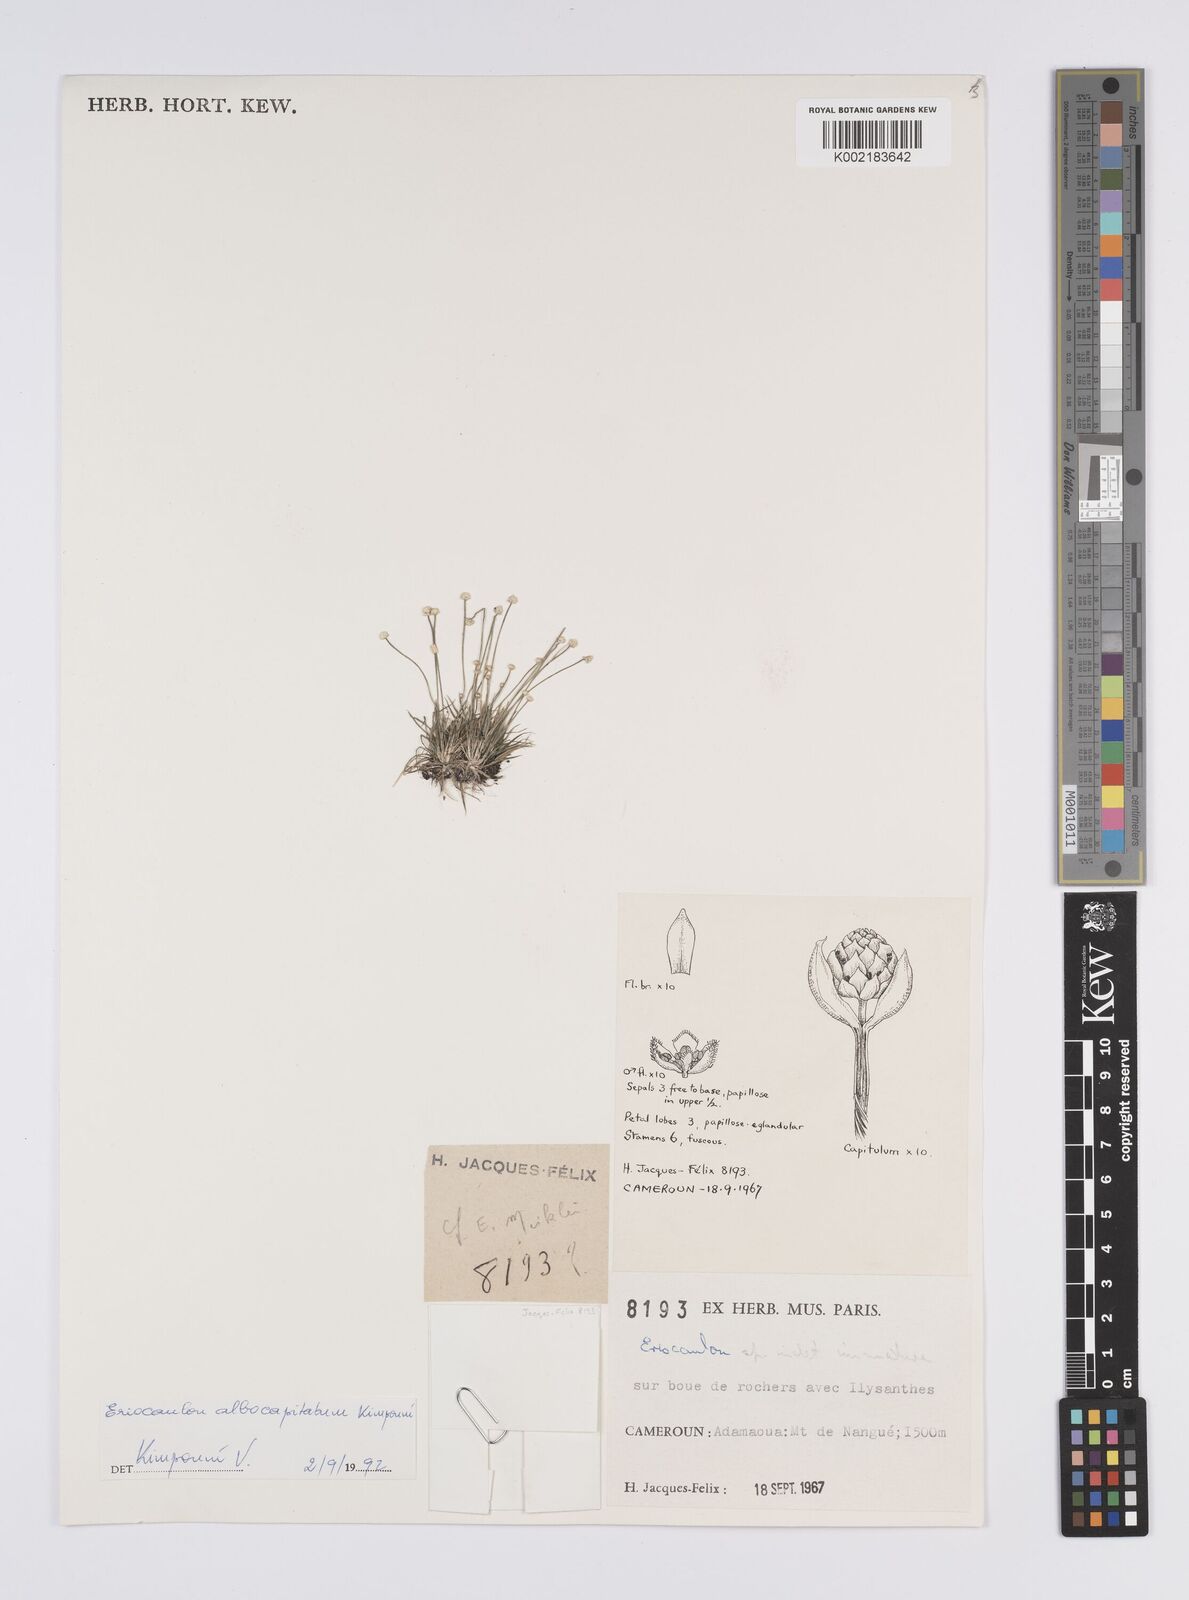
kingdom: Plantae
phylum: Tracheophyta
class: Liliopsida
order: Poales
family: Eriocaulaceae
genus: Eriocaulon
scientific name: Eriocaulon albocapitatum
